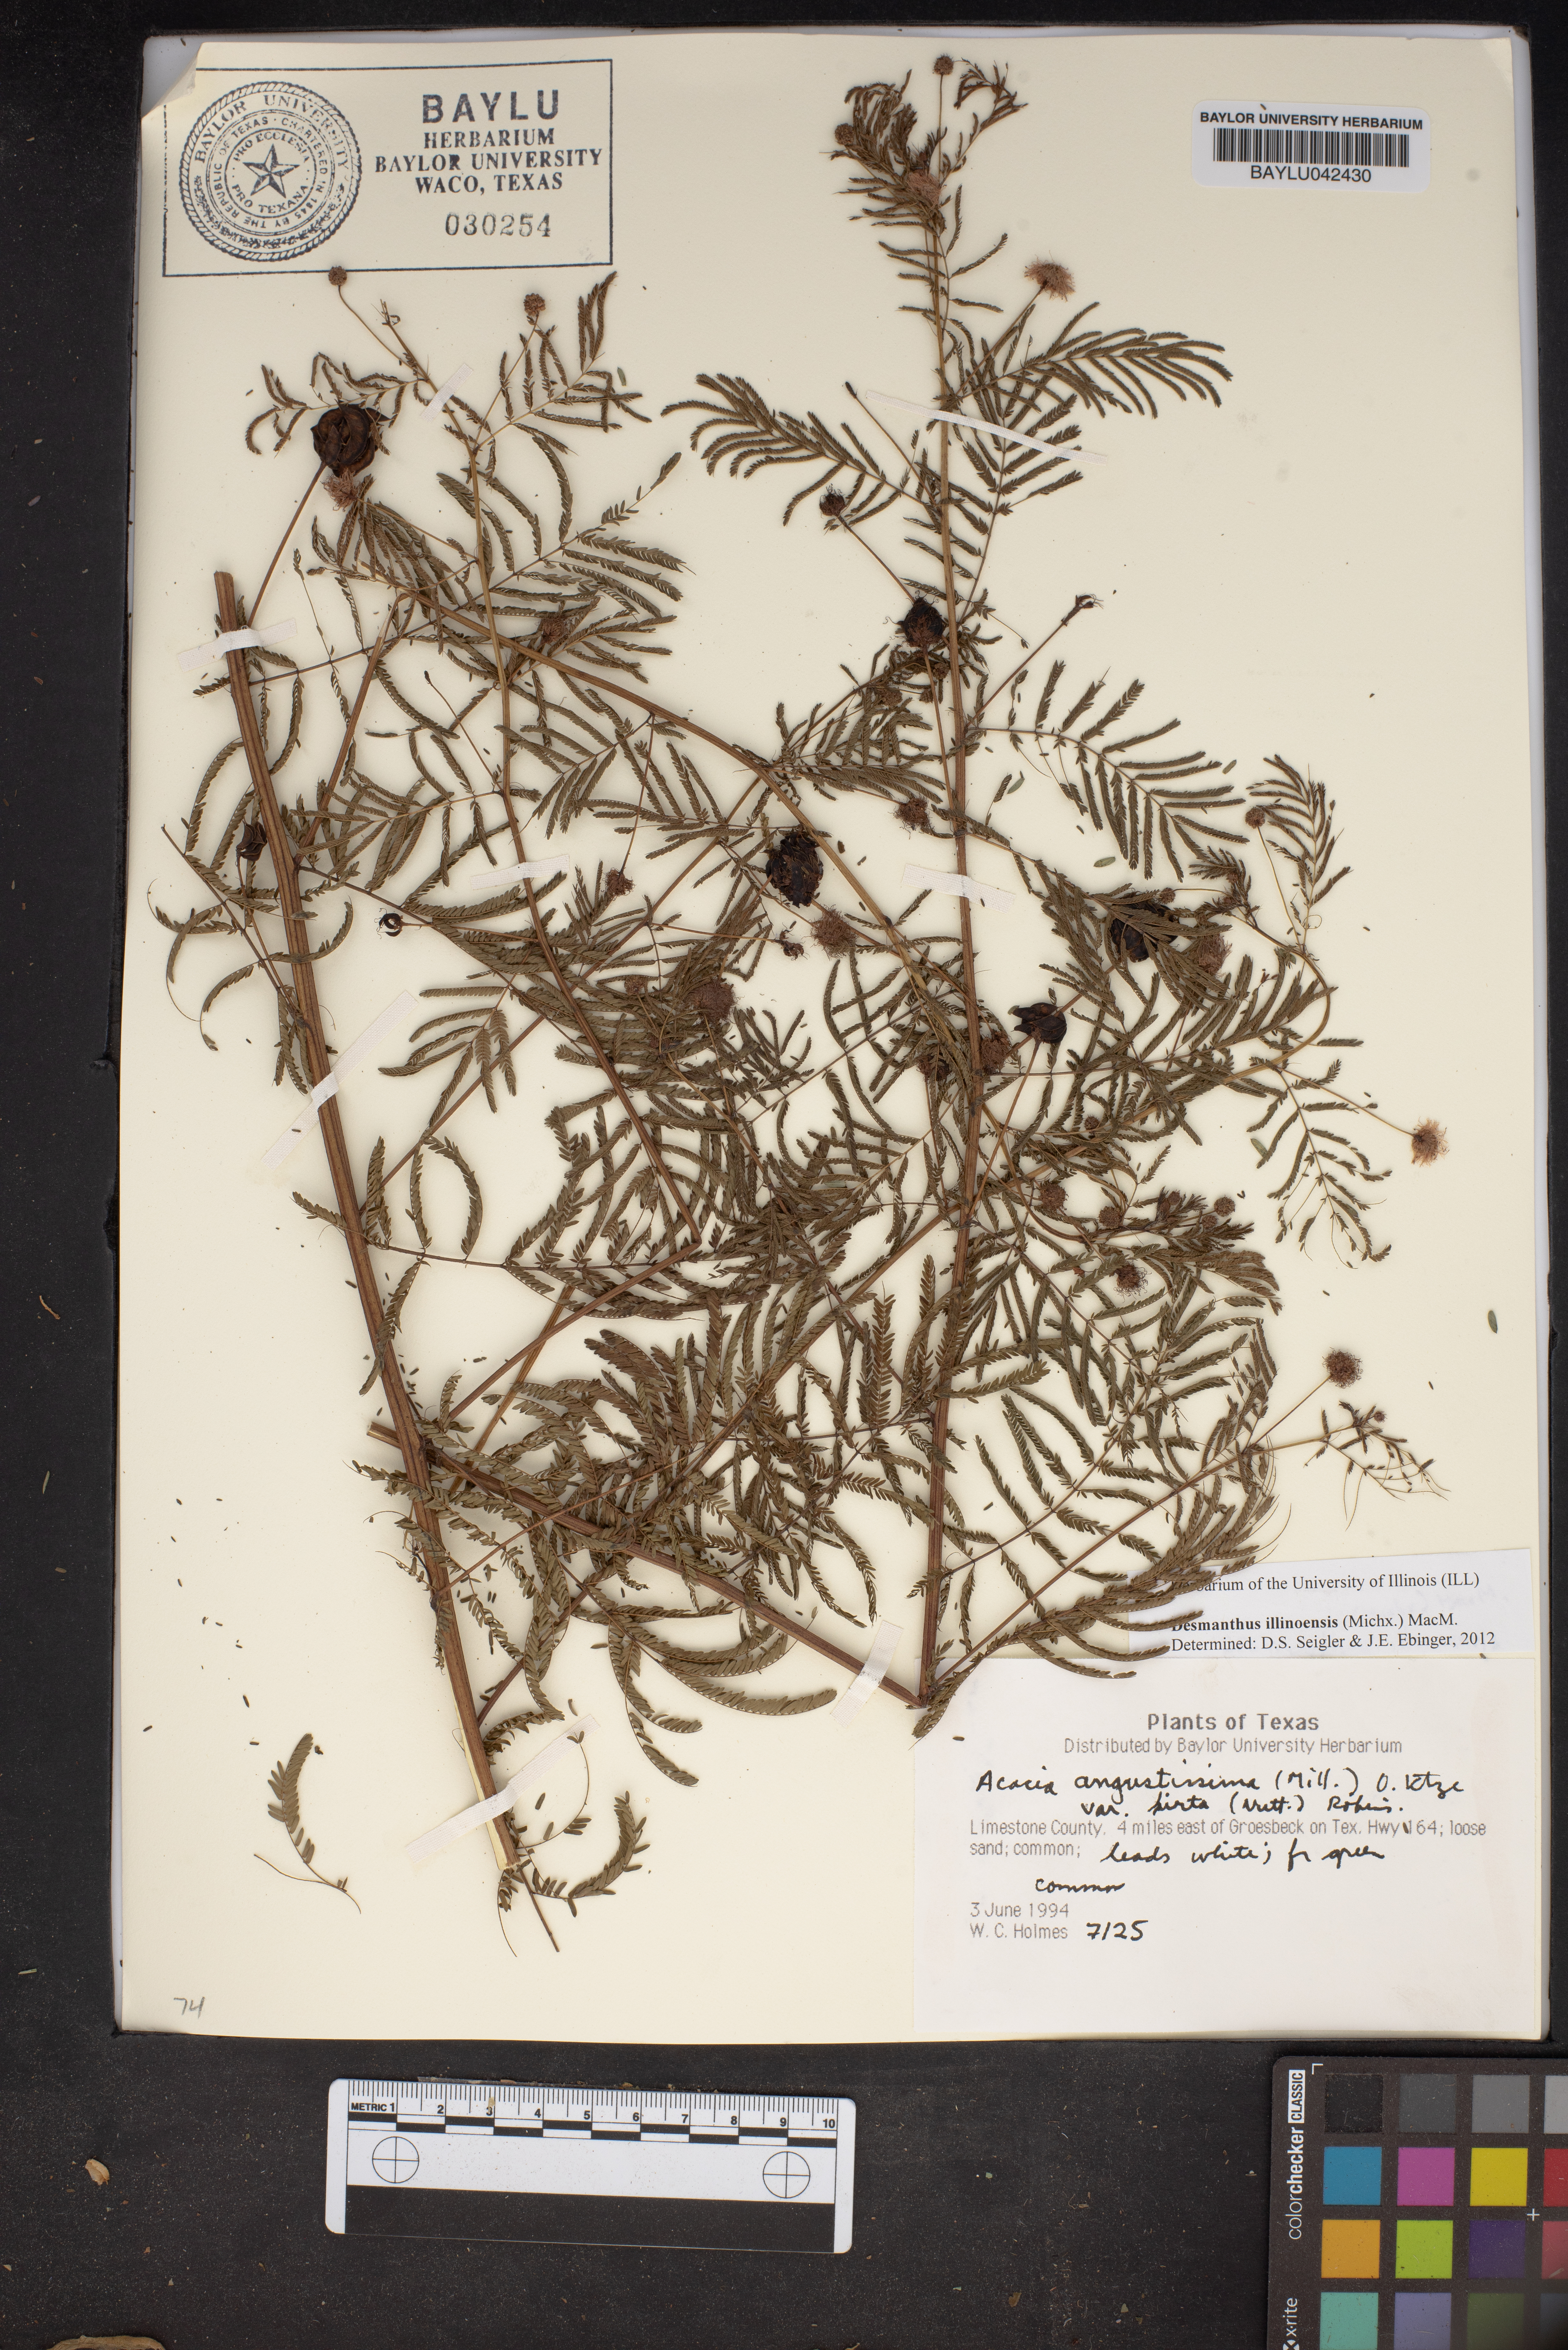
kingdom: Plantae
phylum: Tracheophyta
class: Magnoliopsida
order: Fabales
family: Fabaceae
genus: Desmanthus
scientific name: Desmanthus illinoensis
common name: Illinois bundle-flower
